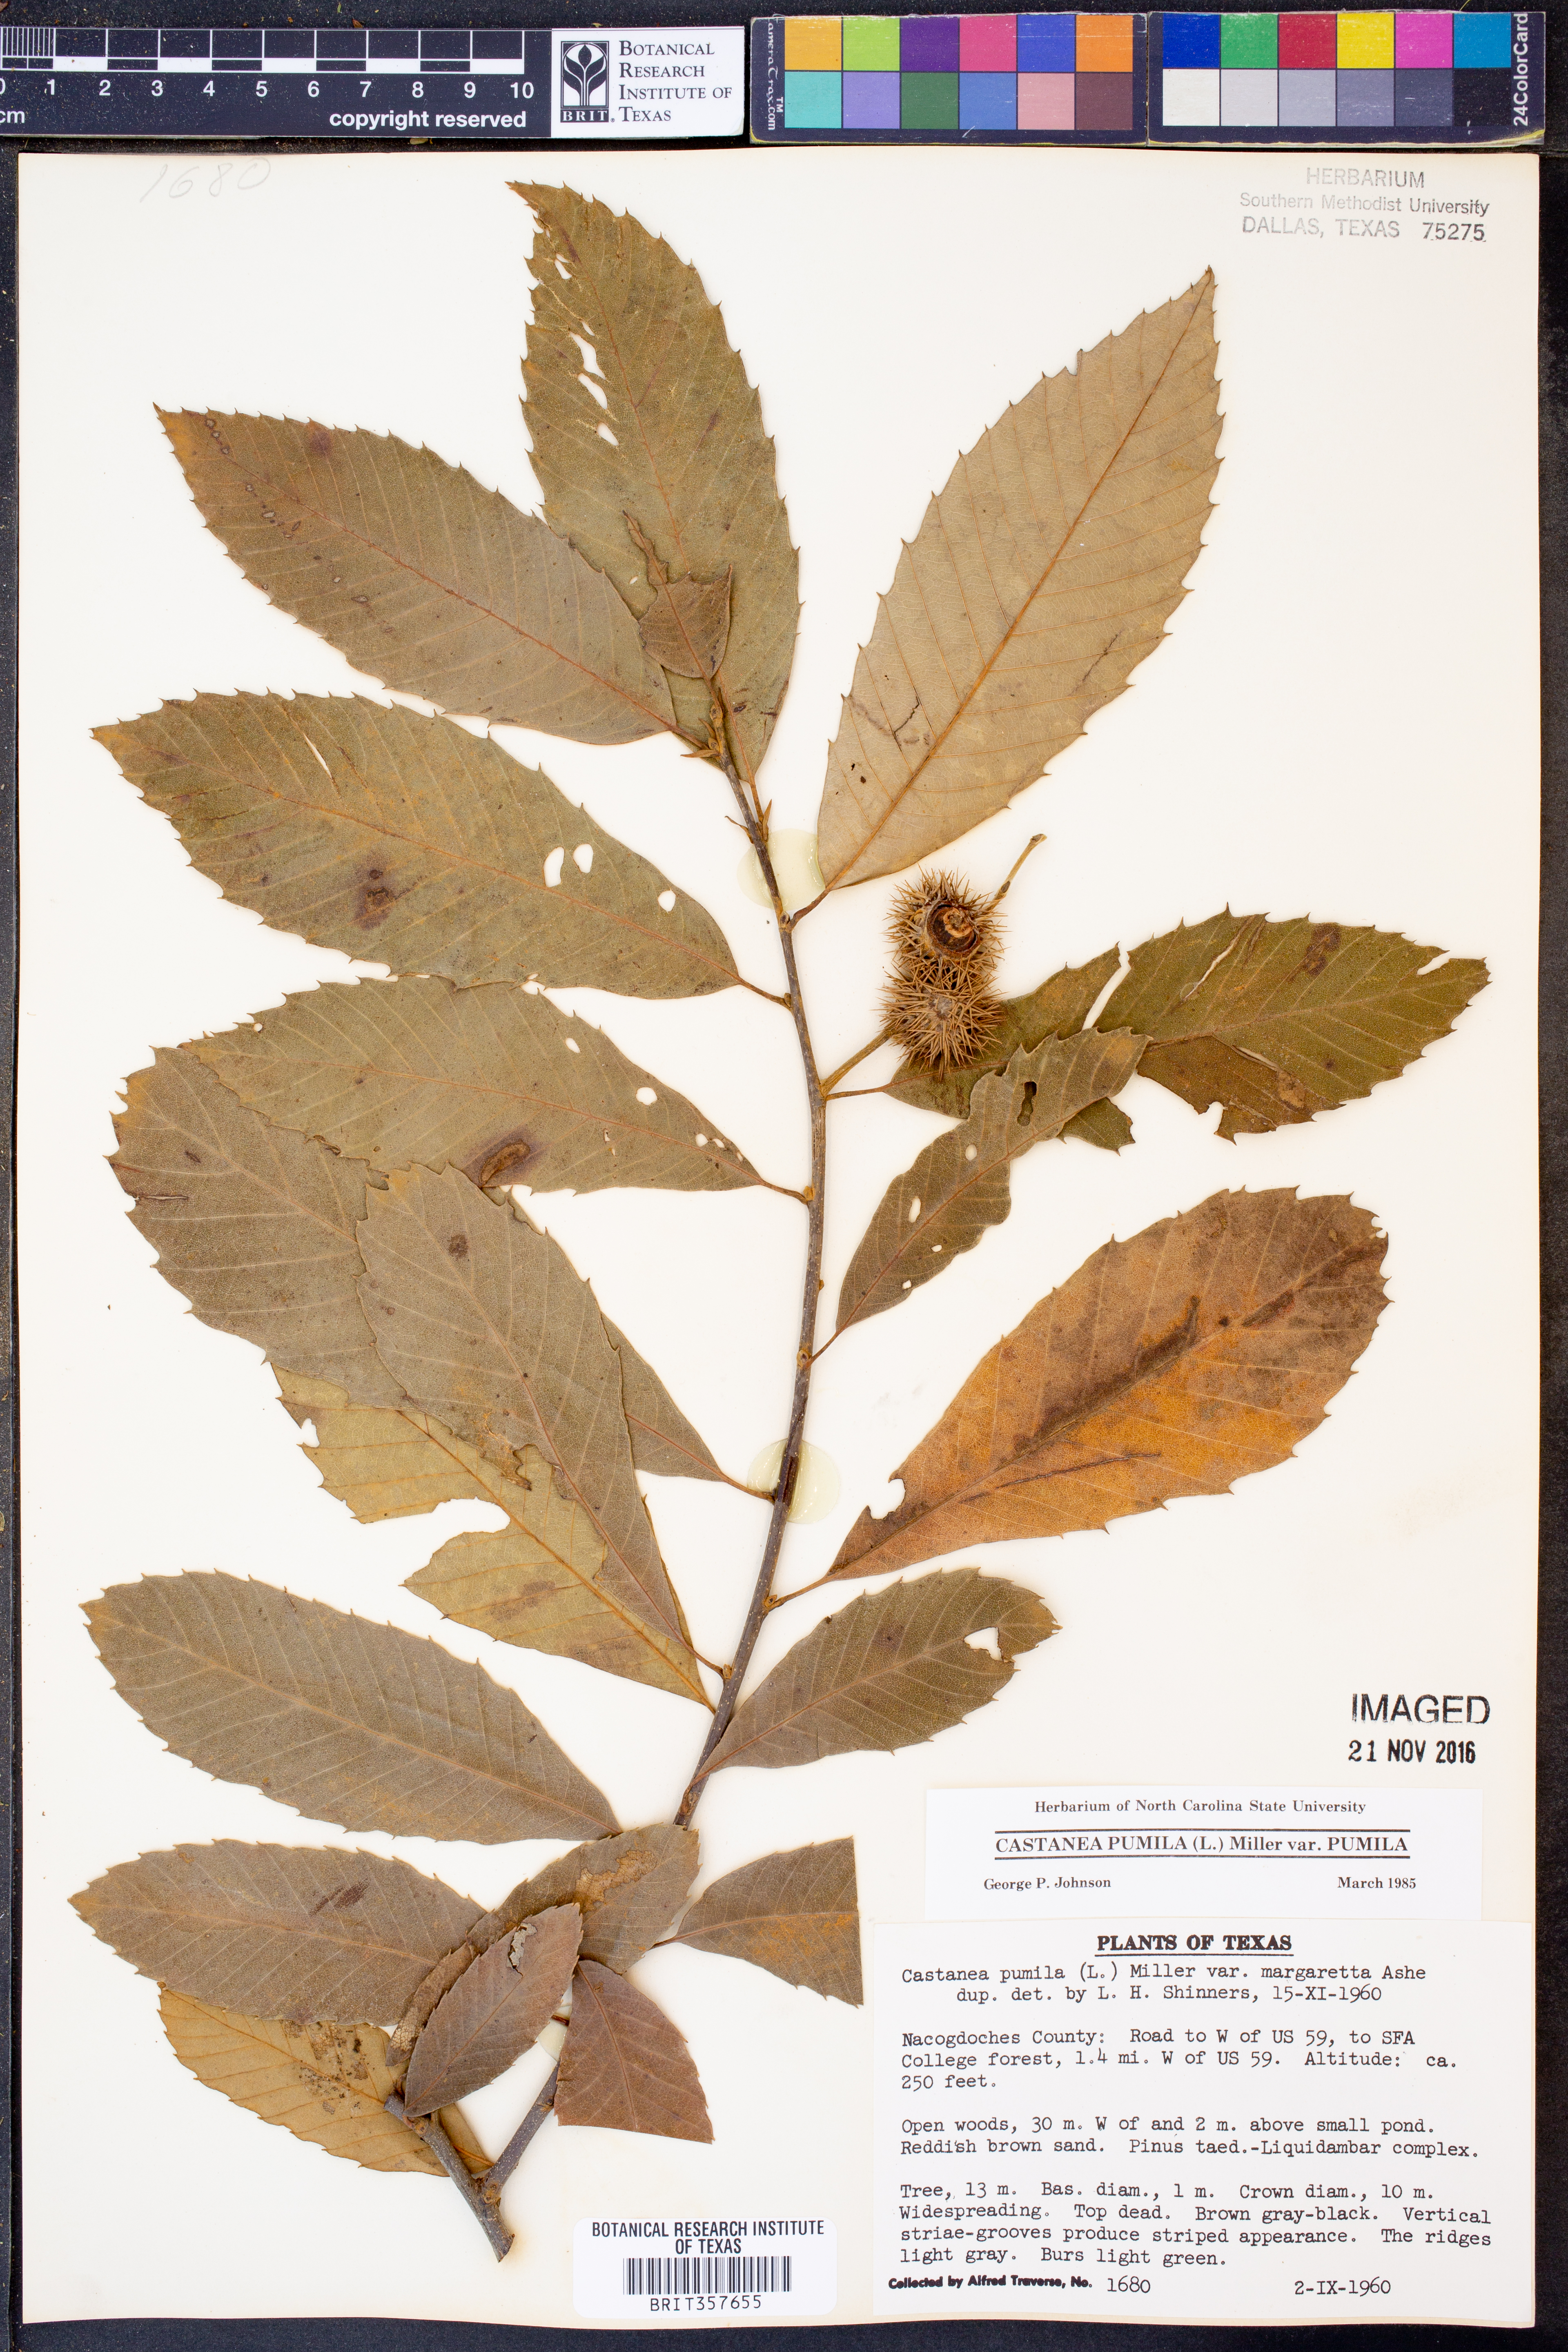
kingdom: Plantae
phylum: Tracheophyta
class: Magnoliopsida
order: Fagales
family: Fagaceae
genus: Castanea
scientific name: Castanea pumila
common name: Chinkapin
